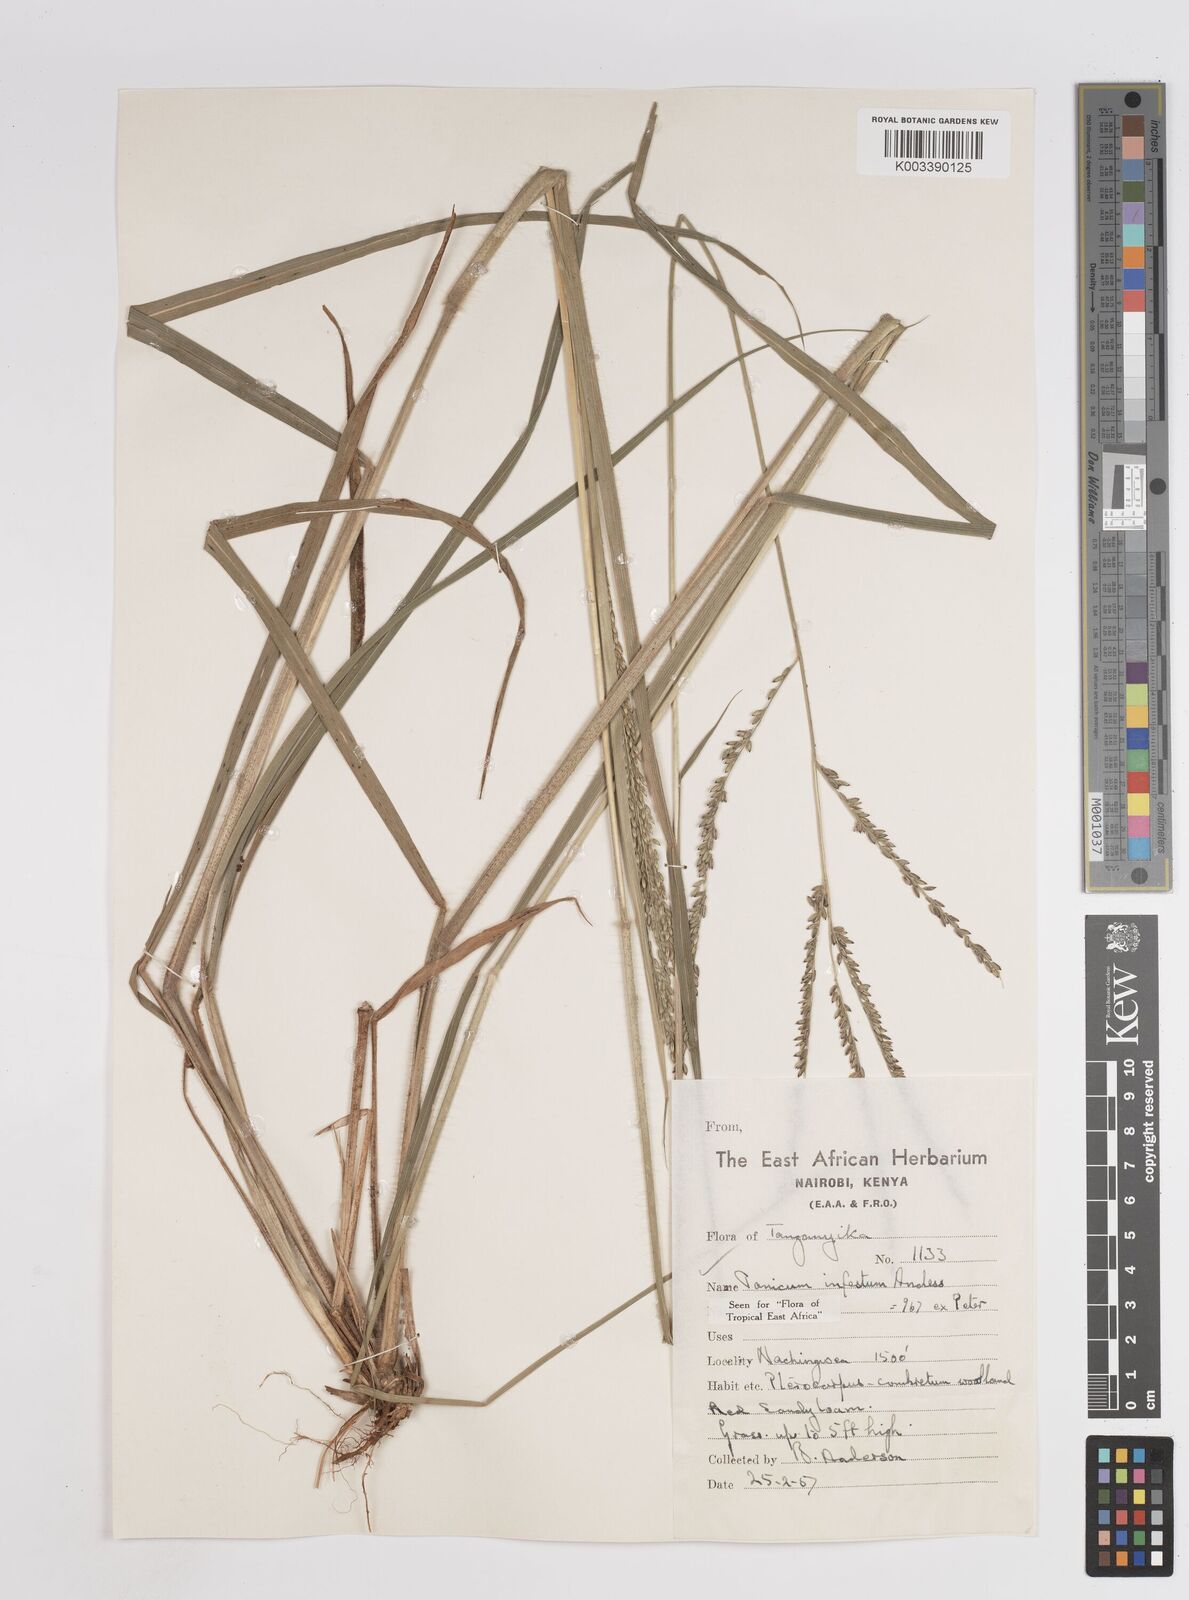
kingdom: Plantae
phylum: Tracheophyta
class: Liliopsida
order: Poales
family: Poaceae
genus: Megathyrsus
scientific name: Megathyrsus infestus
